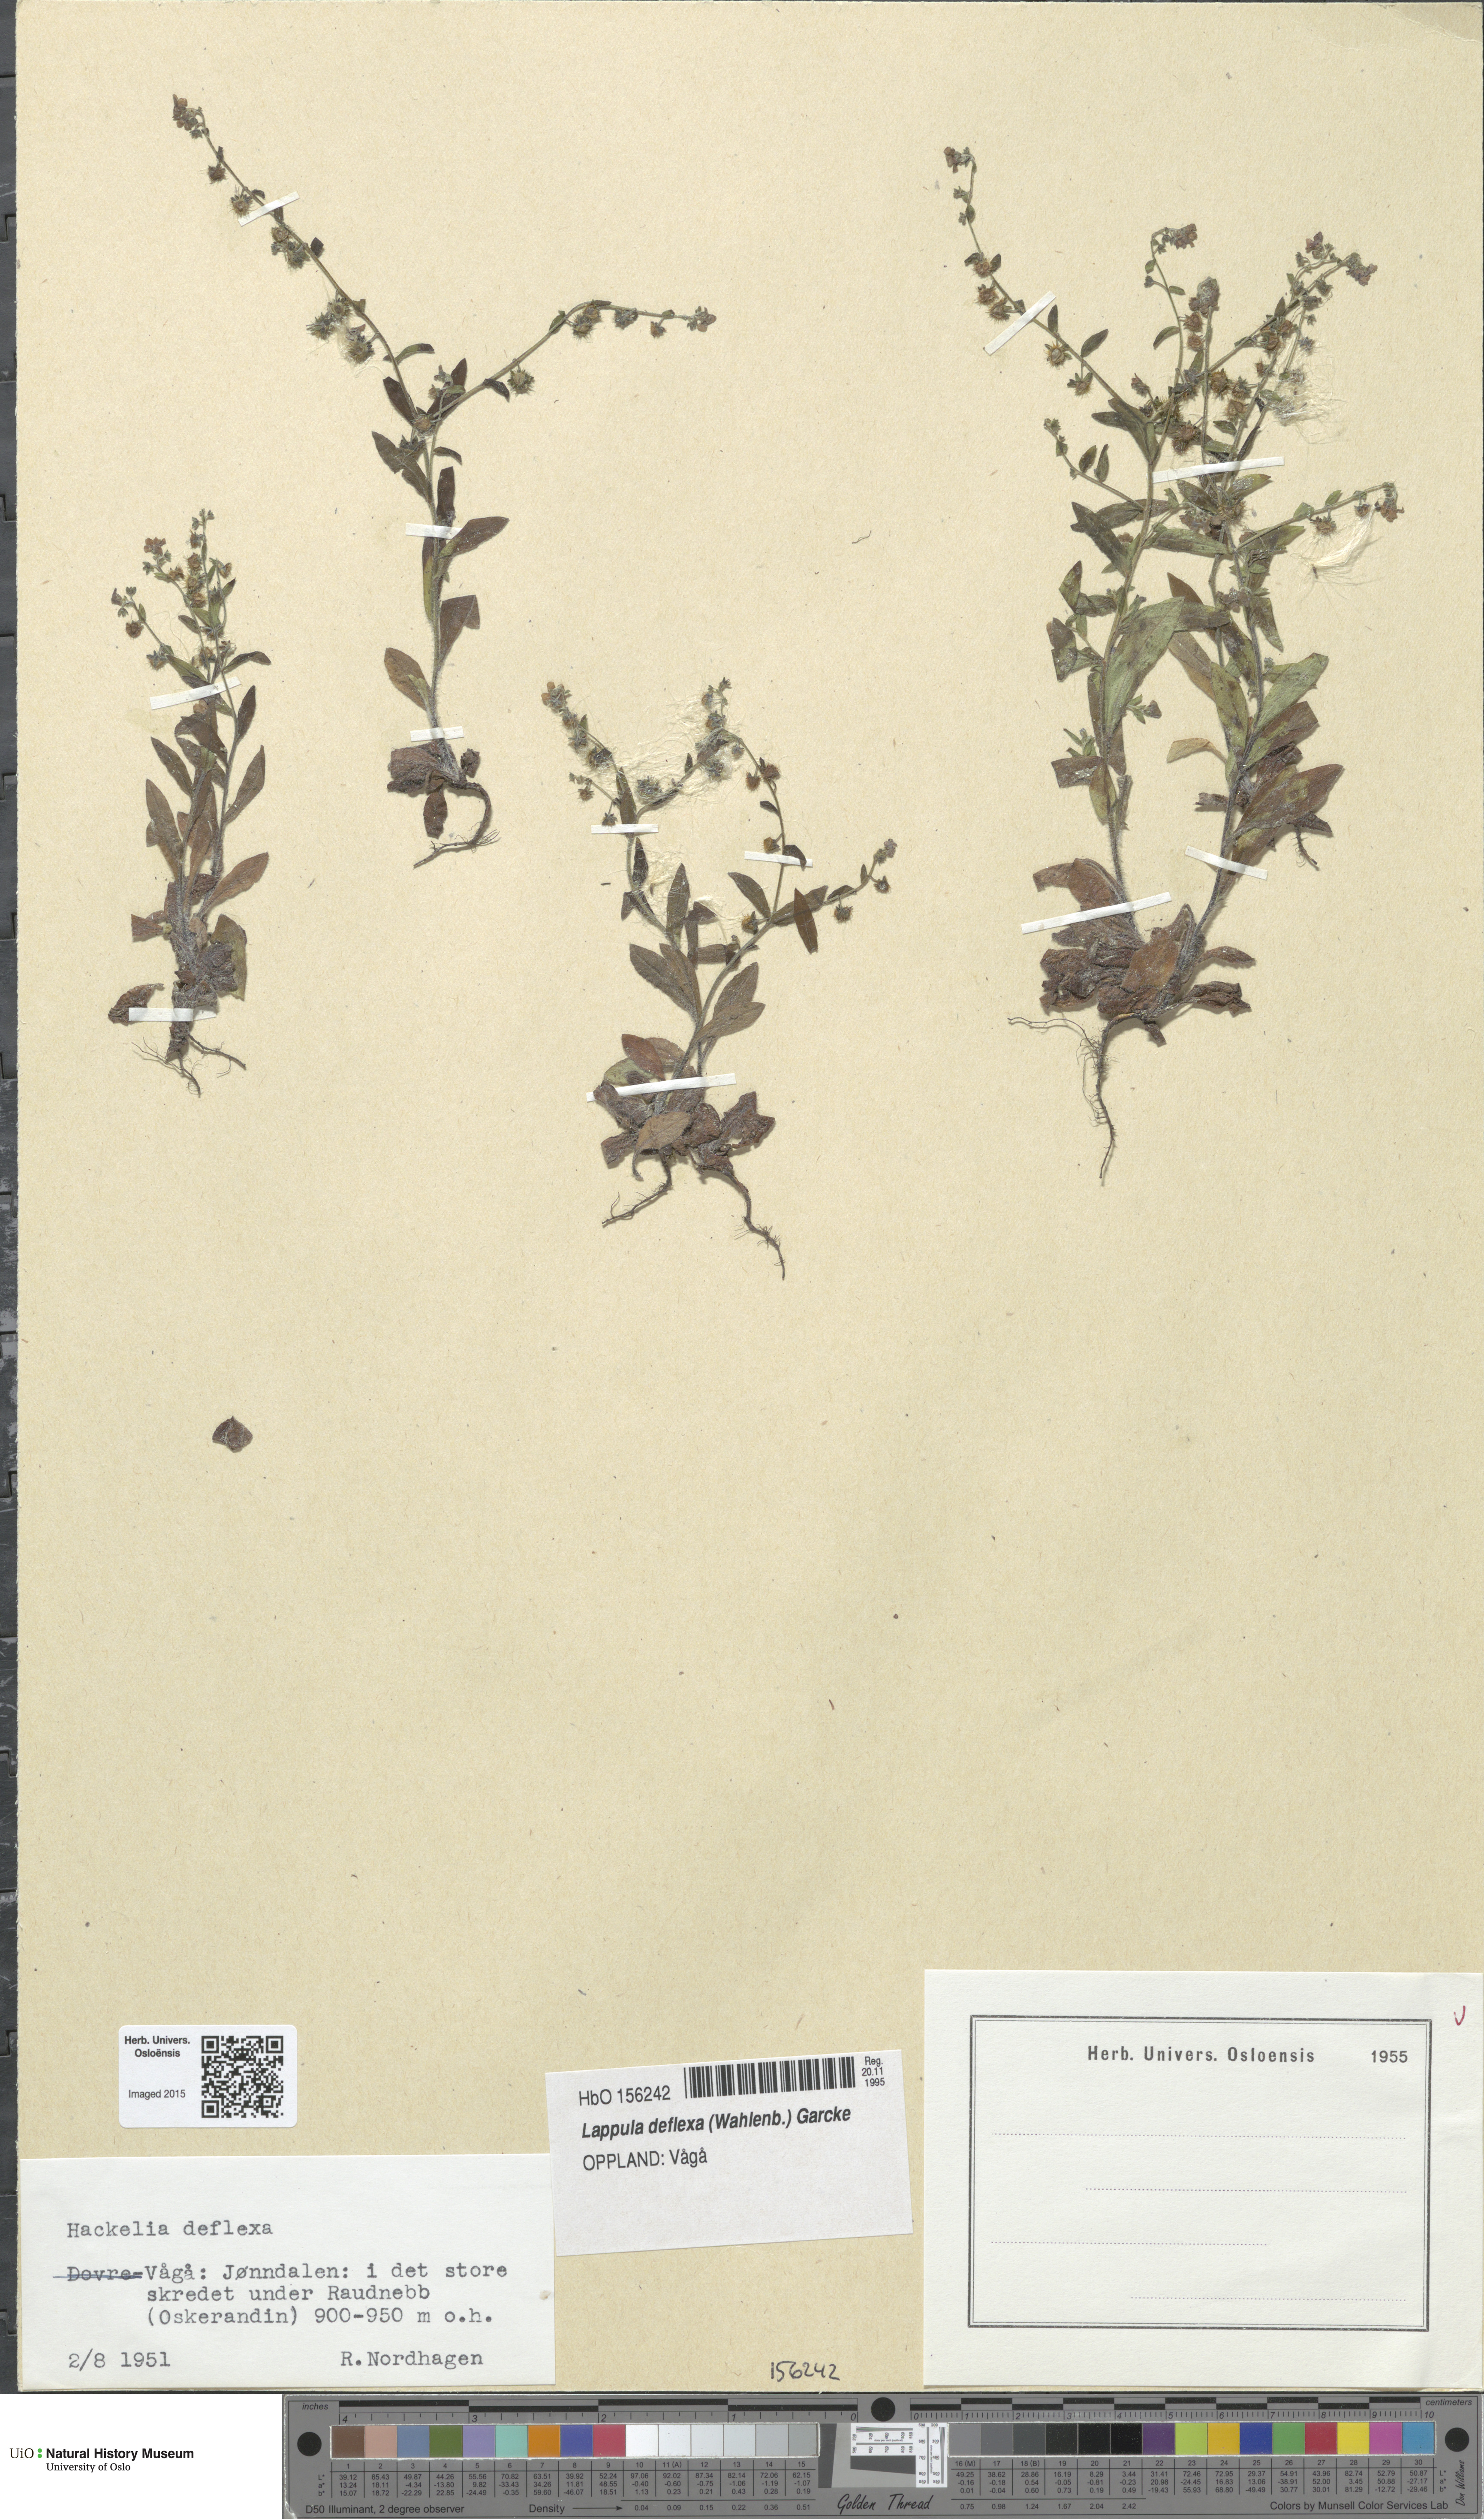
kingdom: Plantae
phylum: Tracheophyta
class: Magnoliopsida
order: Boraginales
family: Boraginaceae
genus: Hackelia
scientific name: Hackelia deflexa
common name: Nodding stickseed
